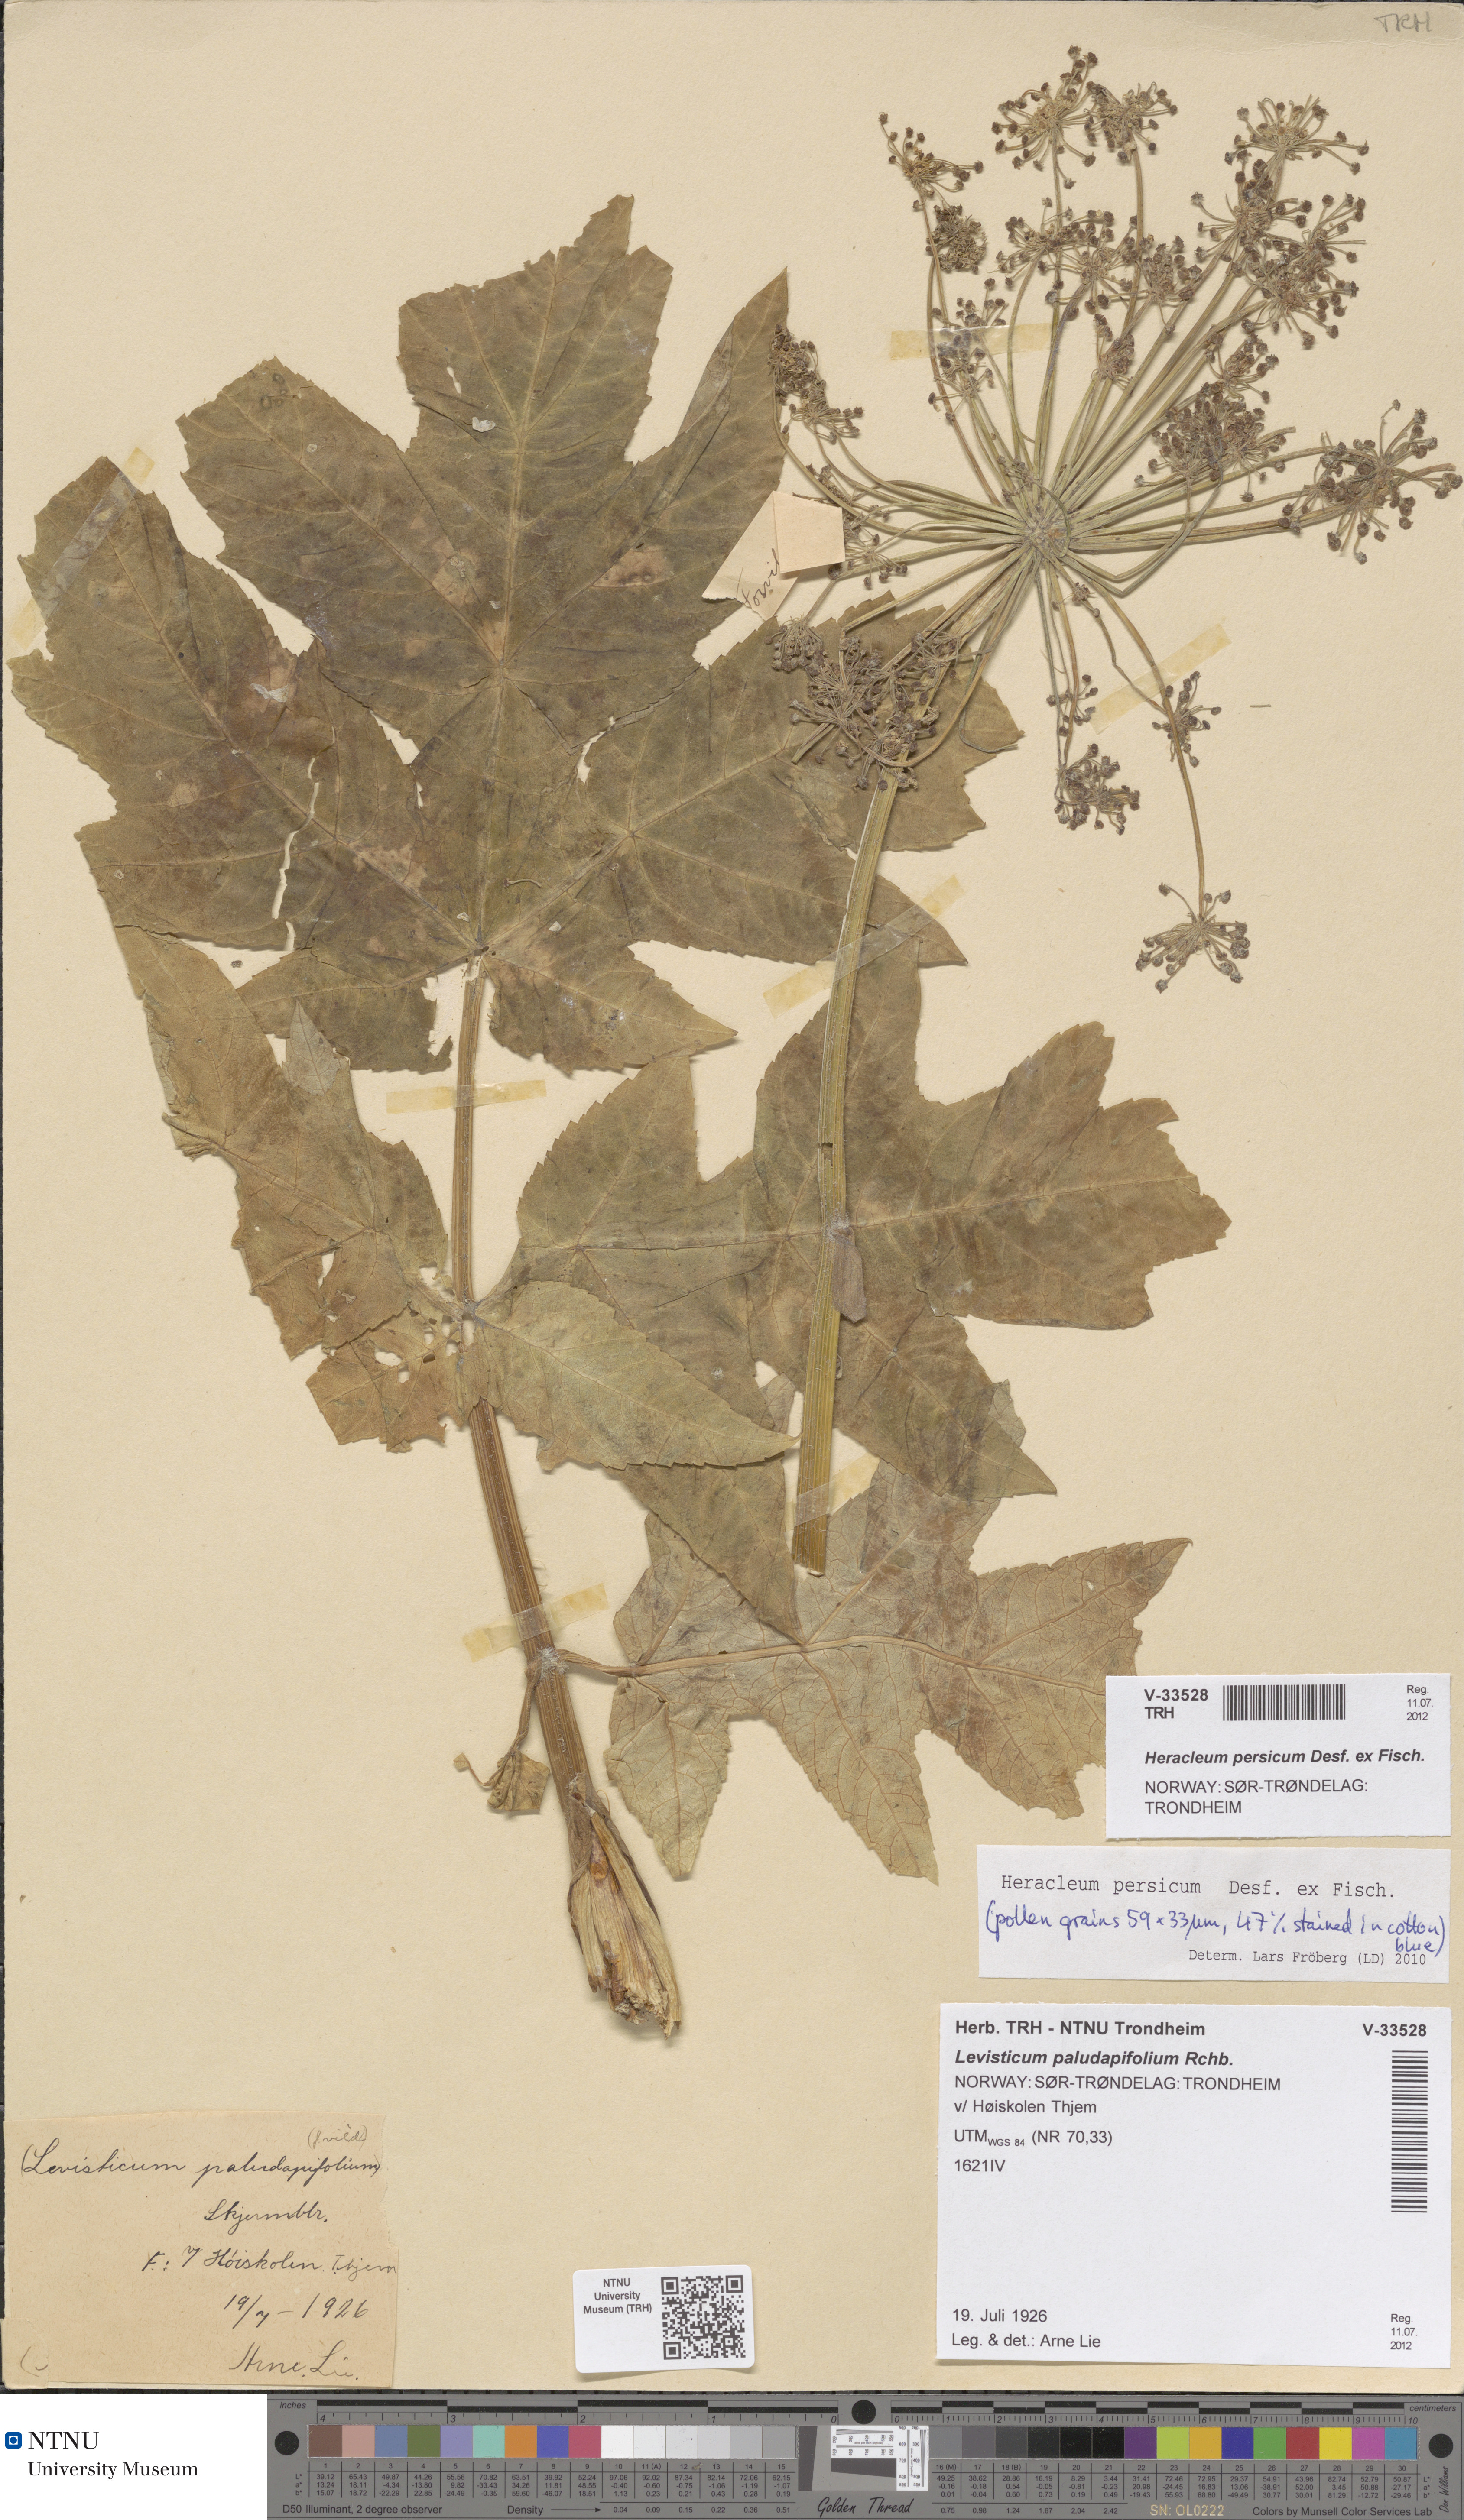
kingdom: Plantae
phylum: Tracheophyta
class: Magnoliopsida
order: Apiales
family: Apiaceae
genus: Heracleum
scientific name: Heracleum persicum
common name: Persian hogweed
